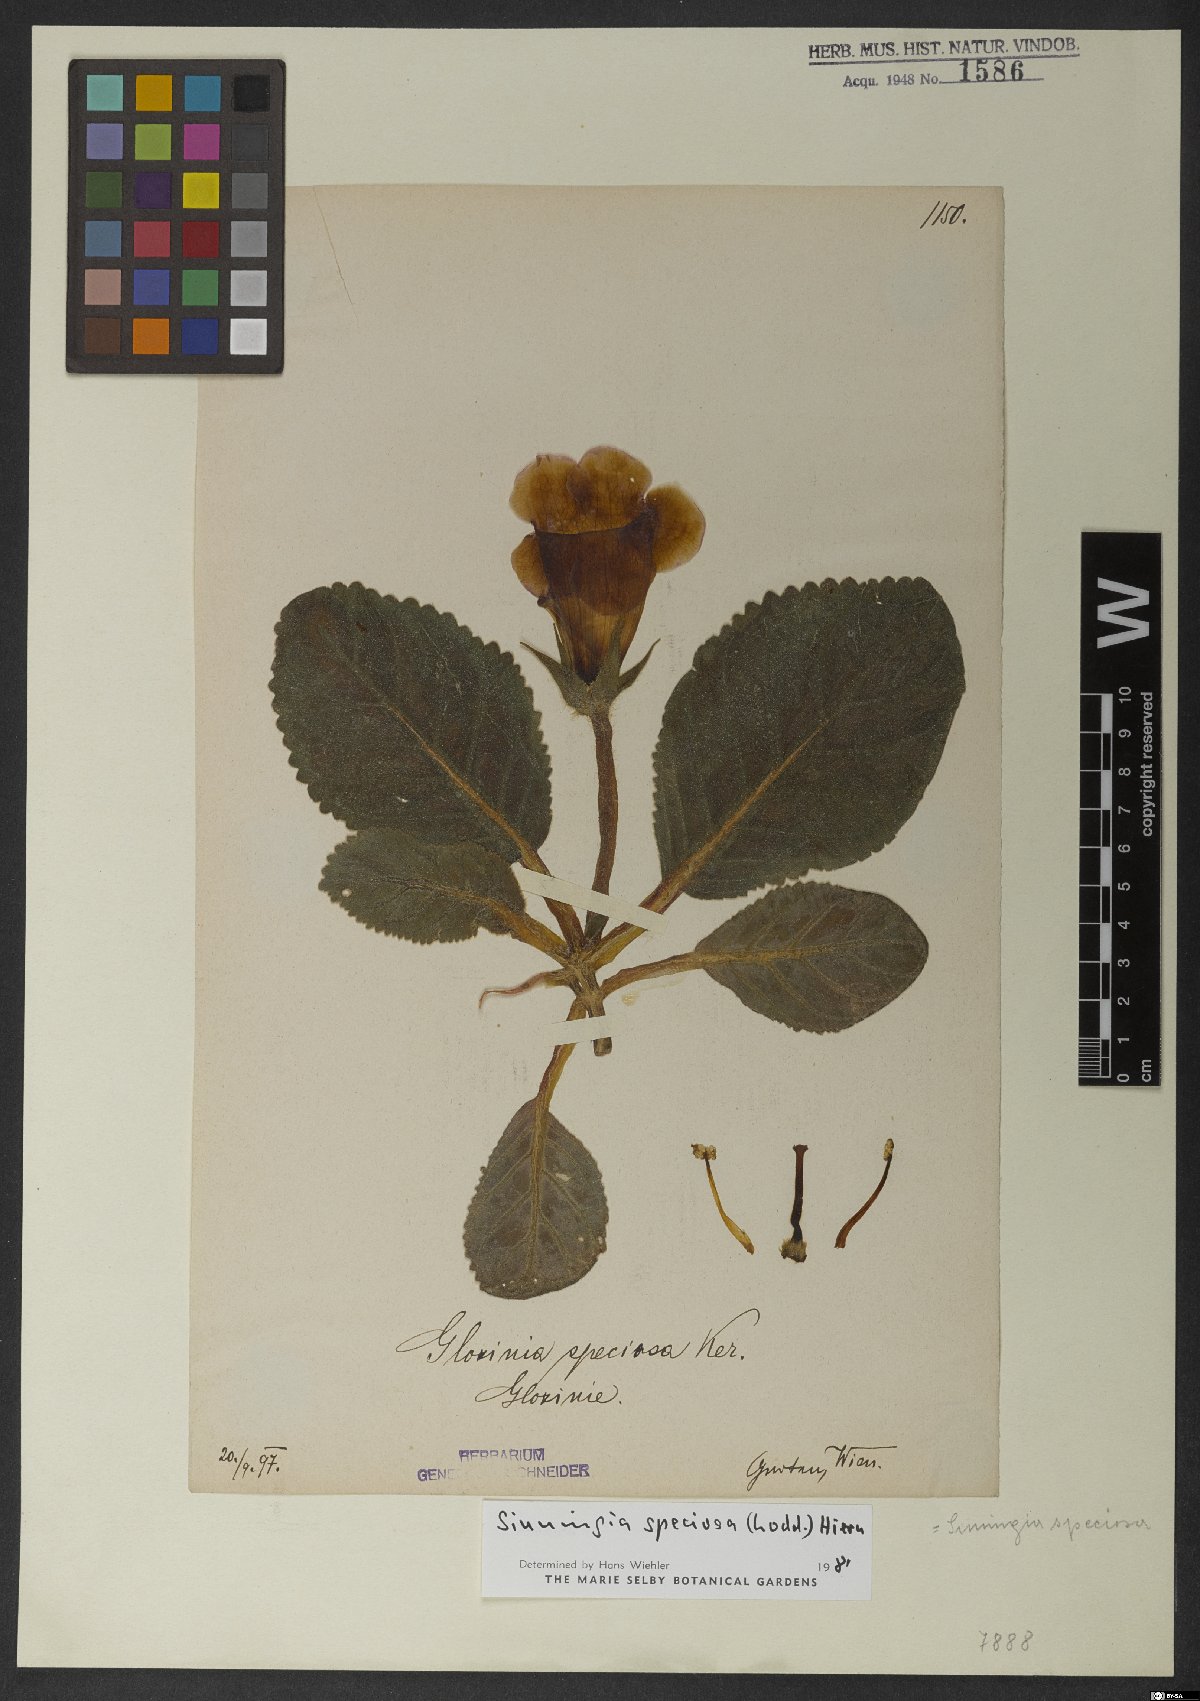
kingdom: Plantae
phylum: Tracheophyta
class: Magnoliopsida
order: Lamiales
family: Gesneriaceae
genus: Sinningia
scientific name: Sinningia speciosa
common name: Brazilian gloxinia
